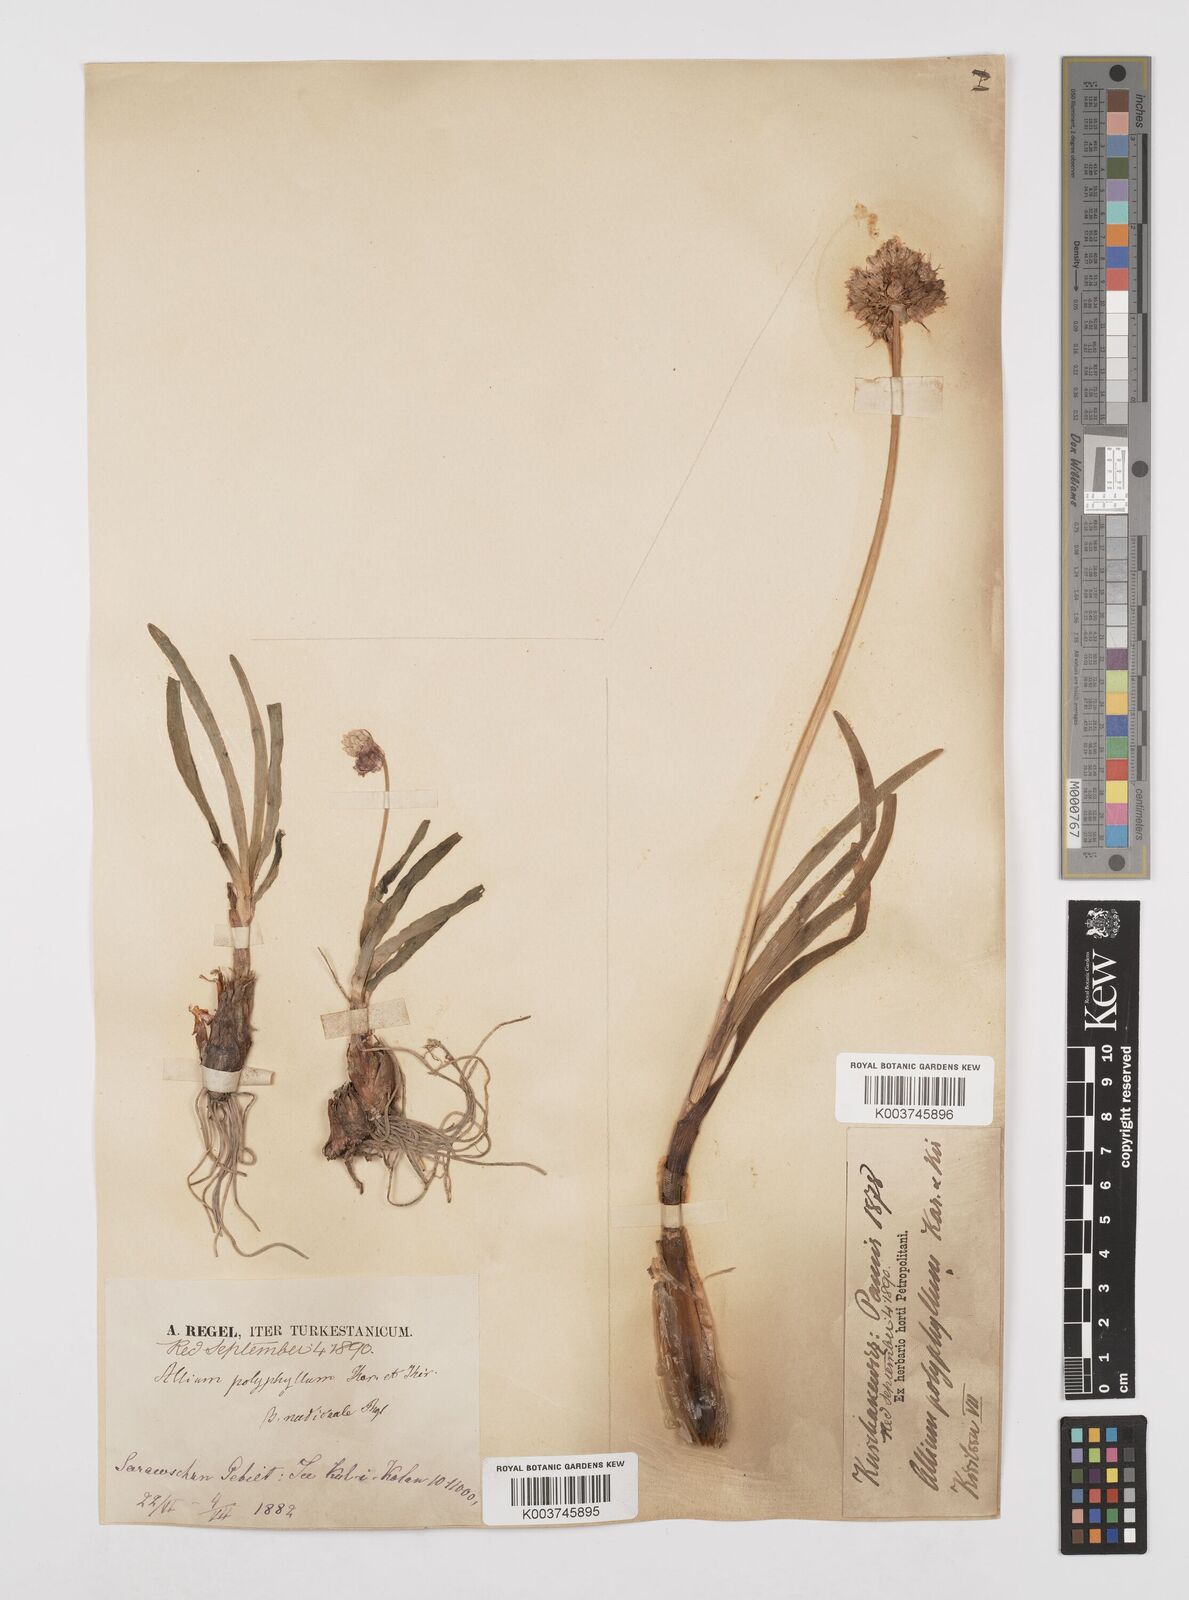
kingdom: Plantae
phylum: Tracheophyta
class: Liliopsida
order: Asparagales
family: Amaryllidaceae
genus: Allium
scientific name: Allium carolinianum
